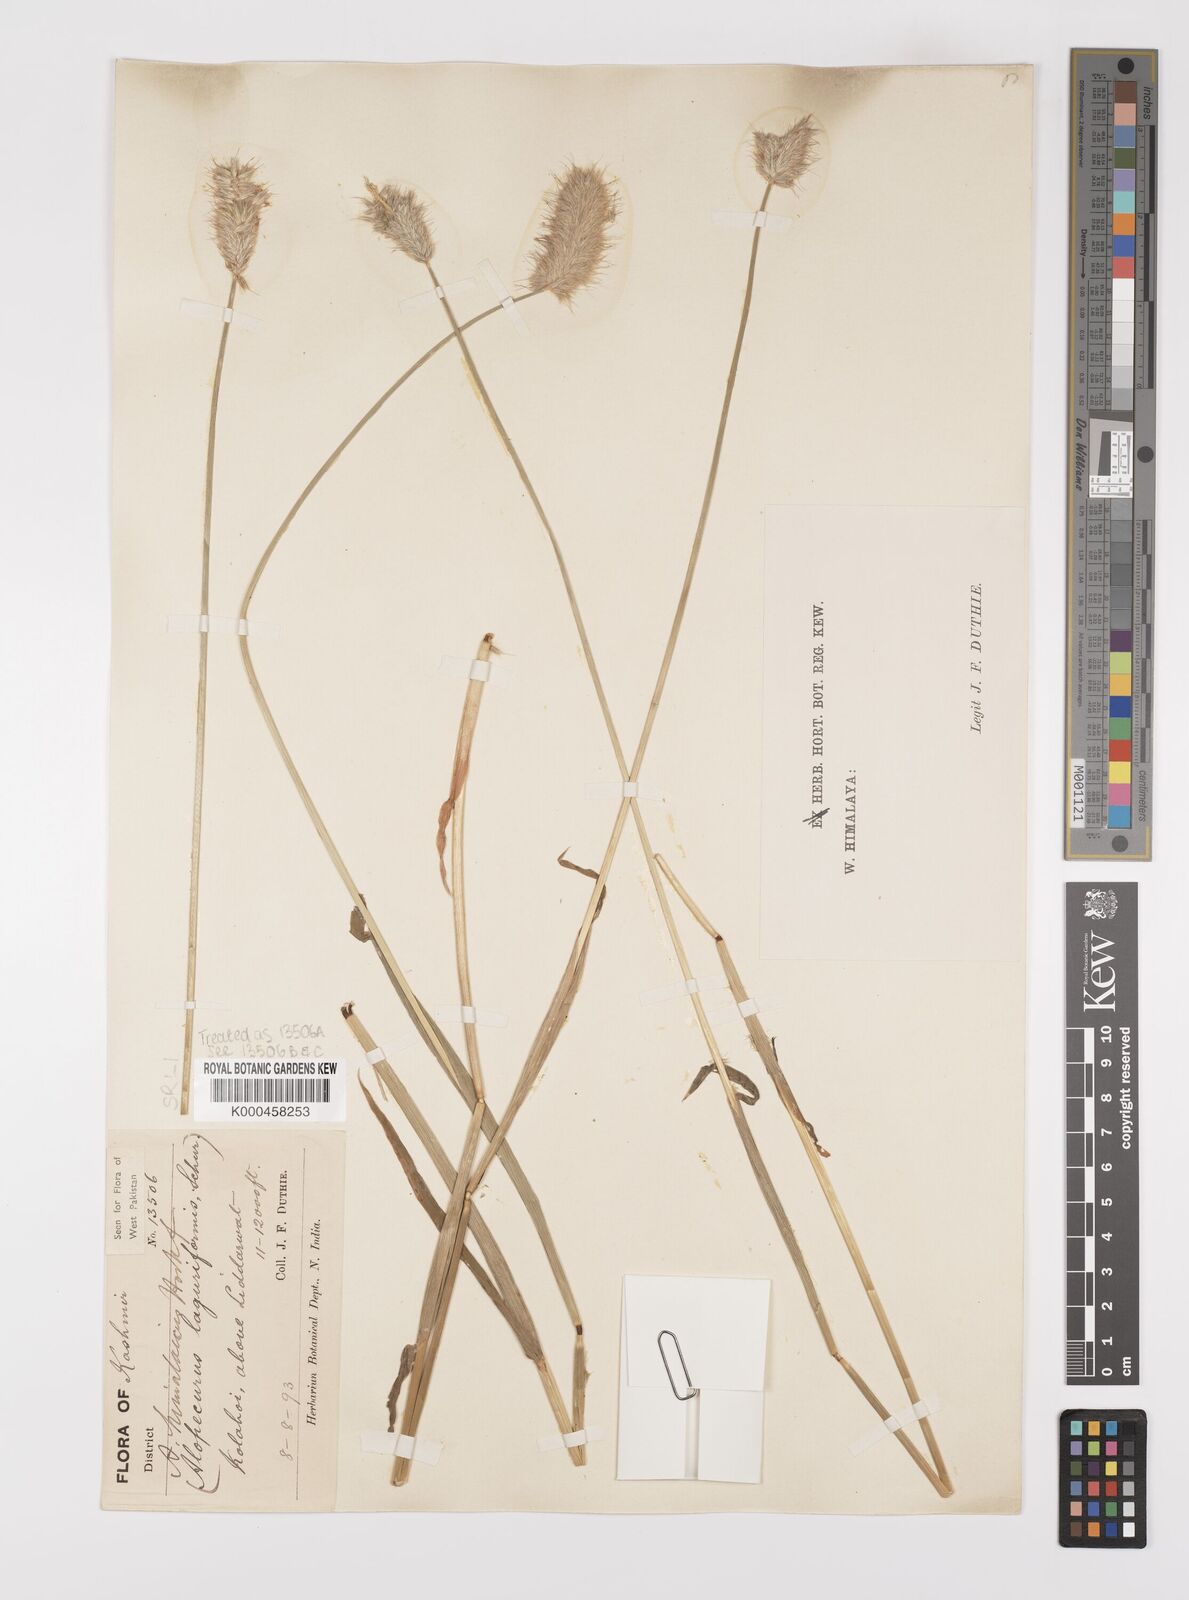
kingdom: Plantae
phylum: Tracheophyta
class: Liliopsida
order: Poales
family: Poaceae
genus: Alopecurus
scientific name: Alopecurus himalaicus
